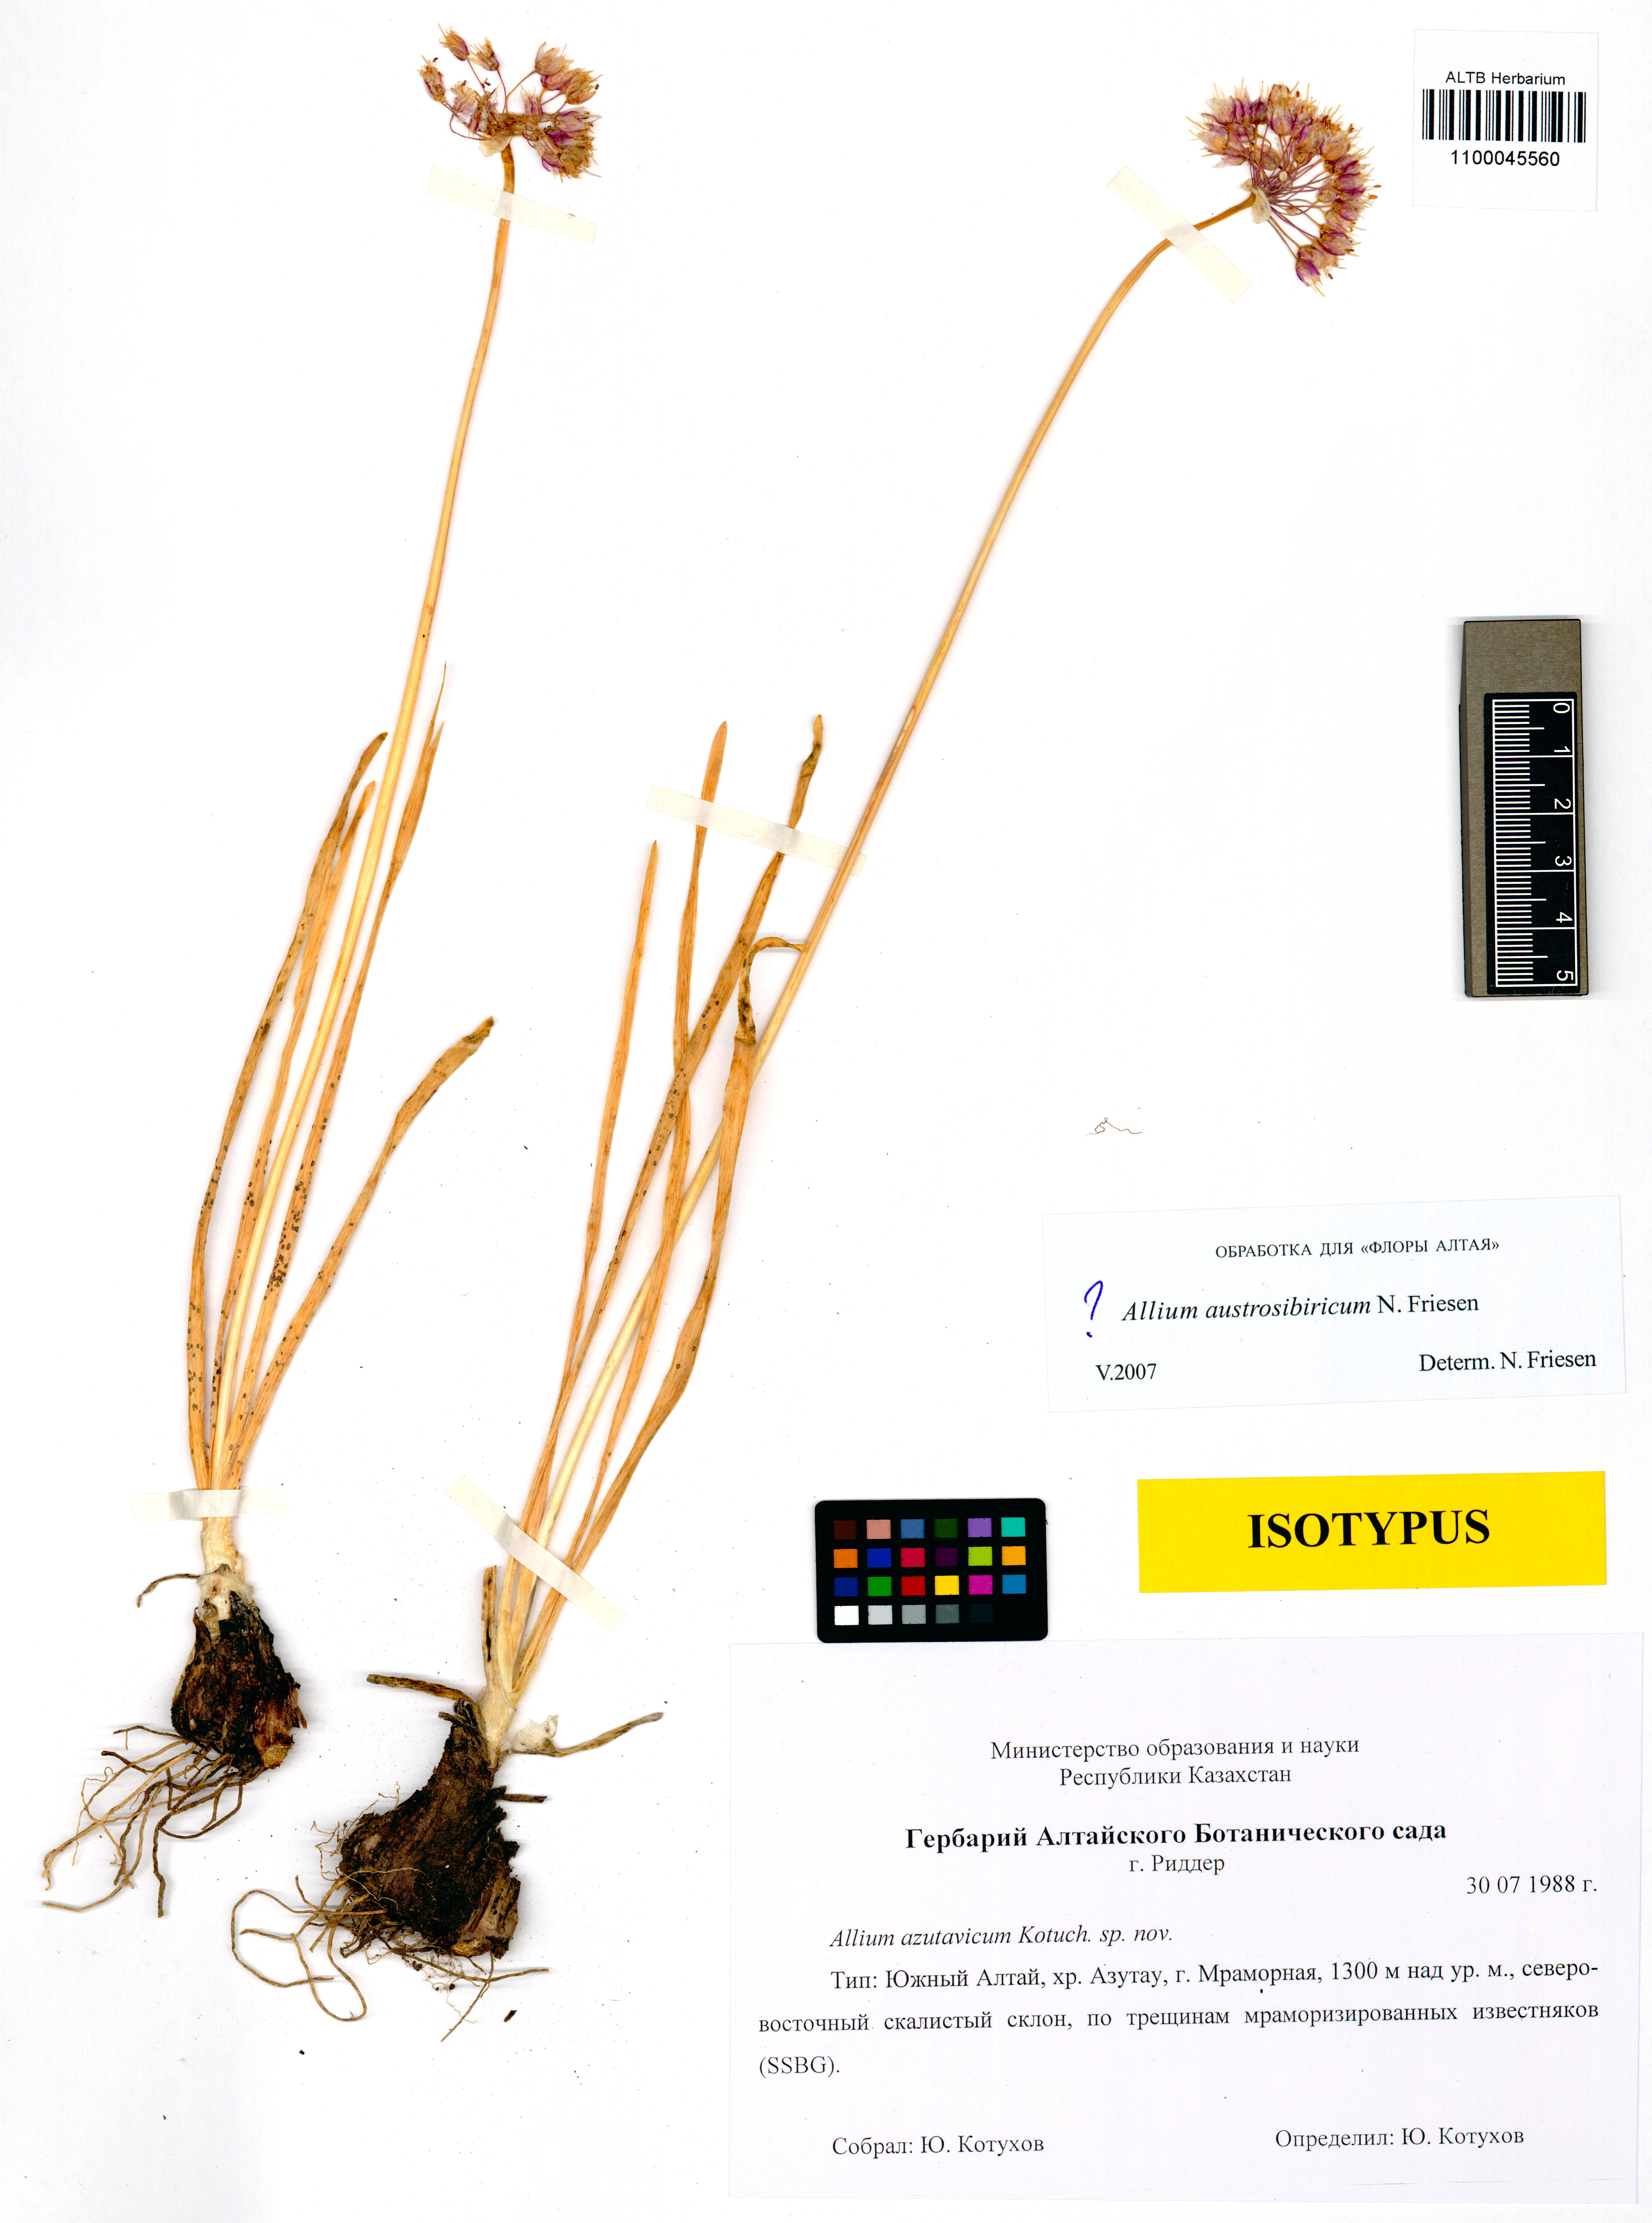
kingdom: Plantae
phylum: Tracheophyta
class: Liliopsida
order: Asparagales
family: Amaryllidaceae
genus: Allium
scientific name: Allium austrosibiricum
